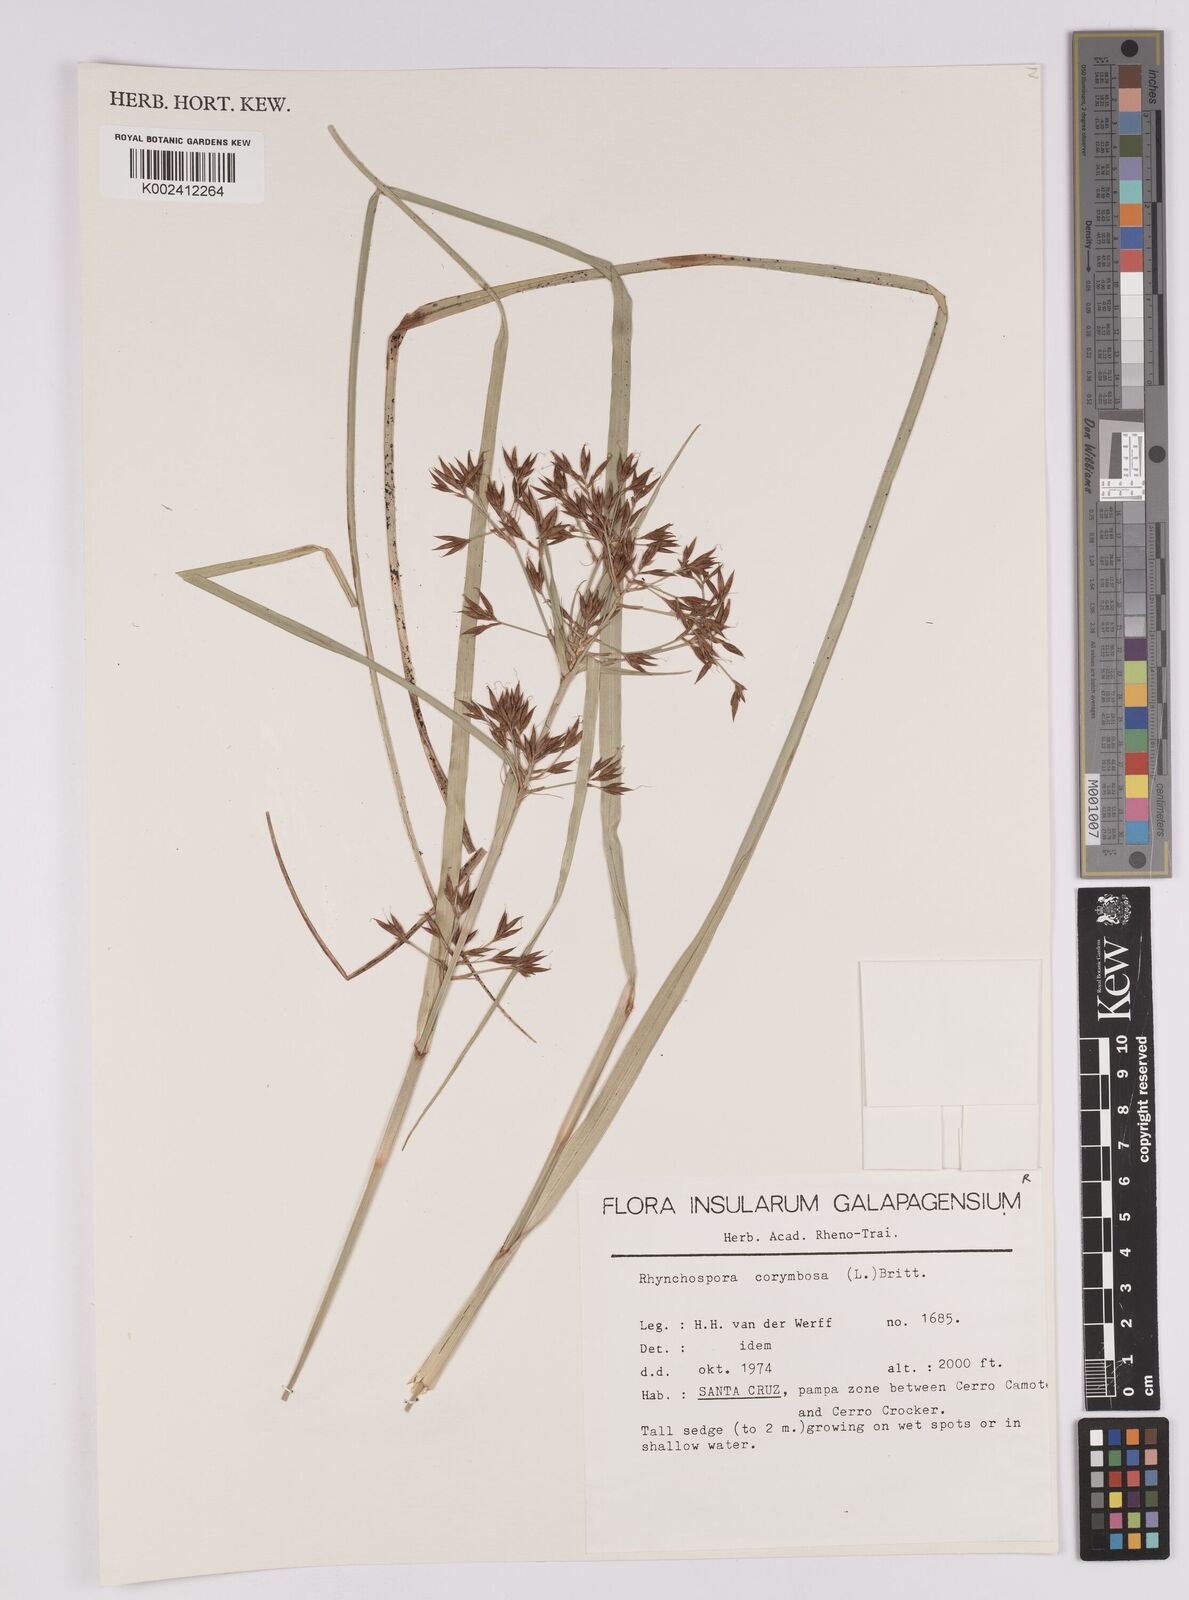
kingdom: Plantae
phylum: Tracheophyta
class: Liliopsida
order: Poales
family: Cyperaceae
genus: Rhynchospora
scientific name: Rhynchospora corymbosa
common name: Golden beak sedge
